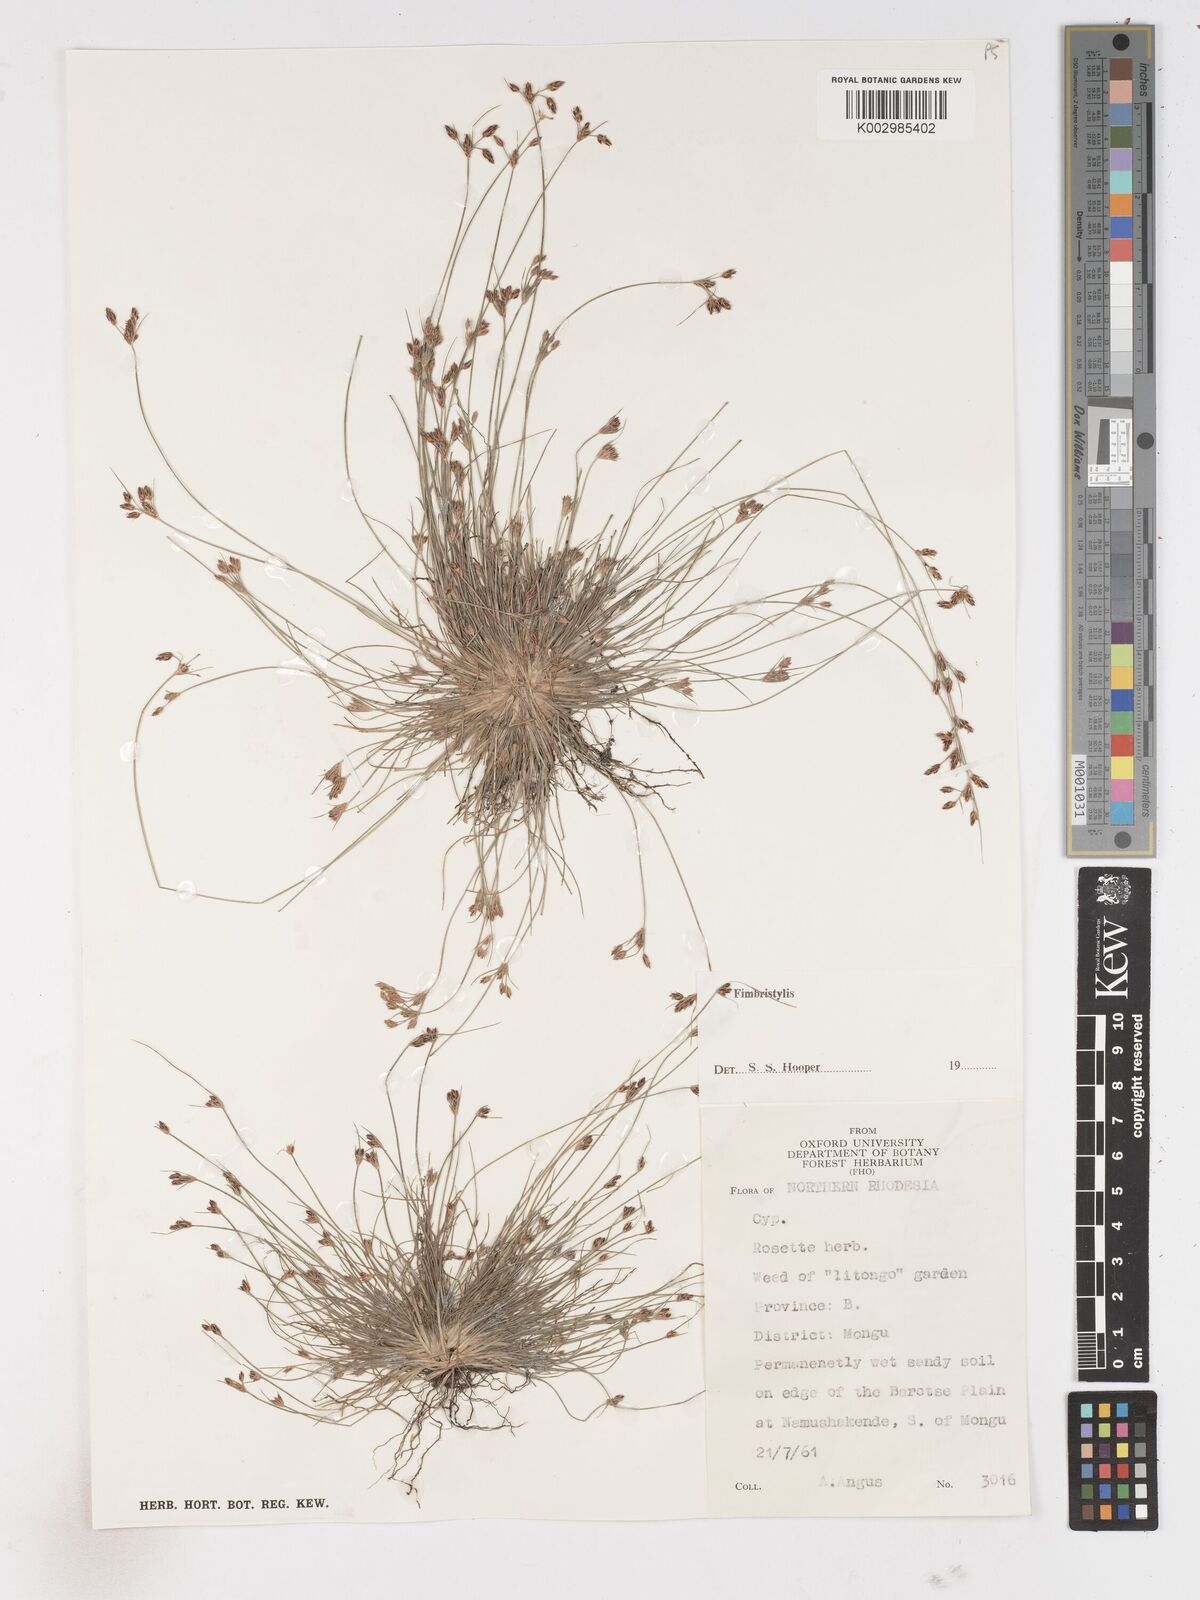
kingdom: Plantae
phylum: Tracheophyta
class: Liliopsida
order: Poales
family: Cyperaceae
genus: Fimbristylis
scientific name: Fimbristylis
